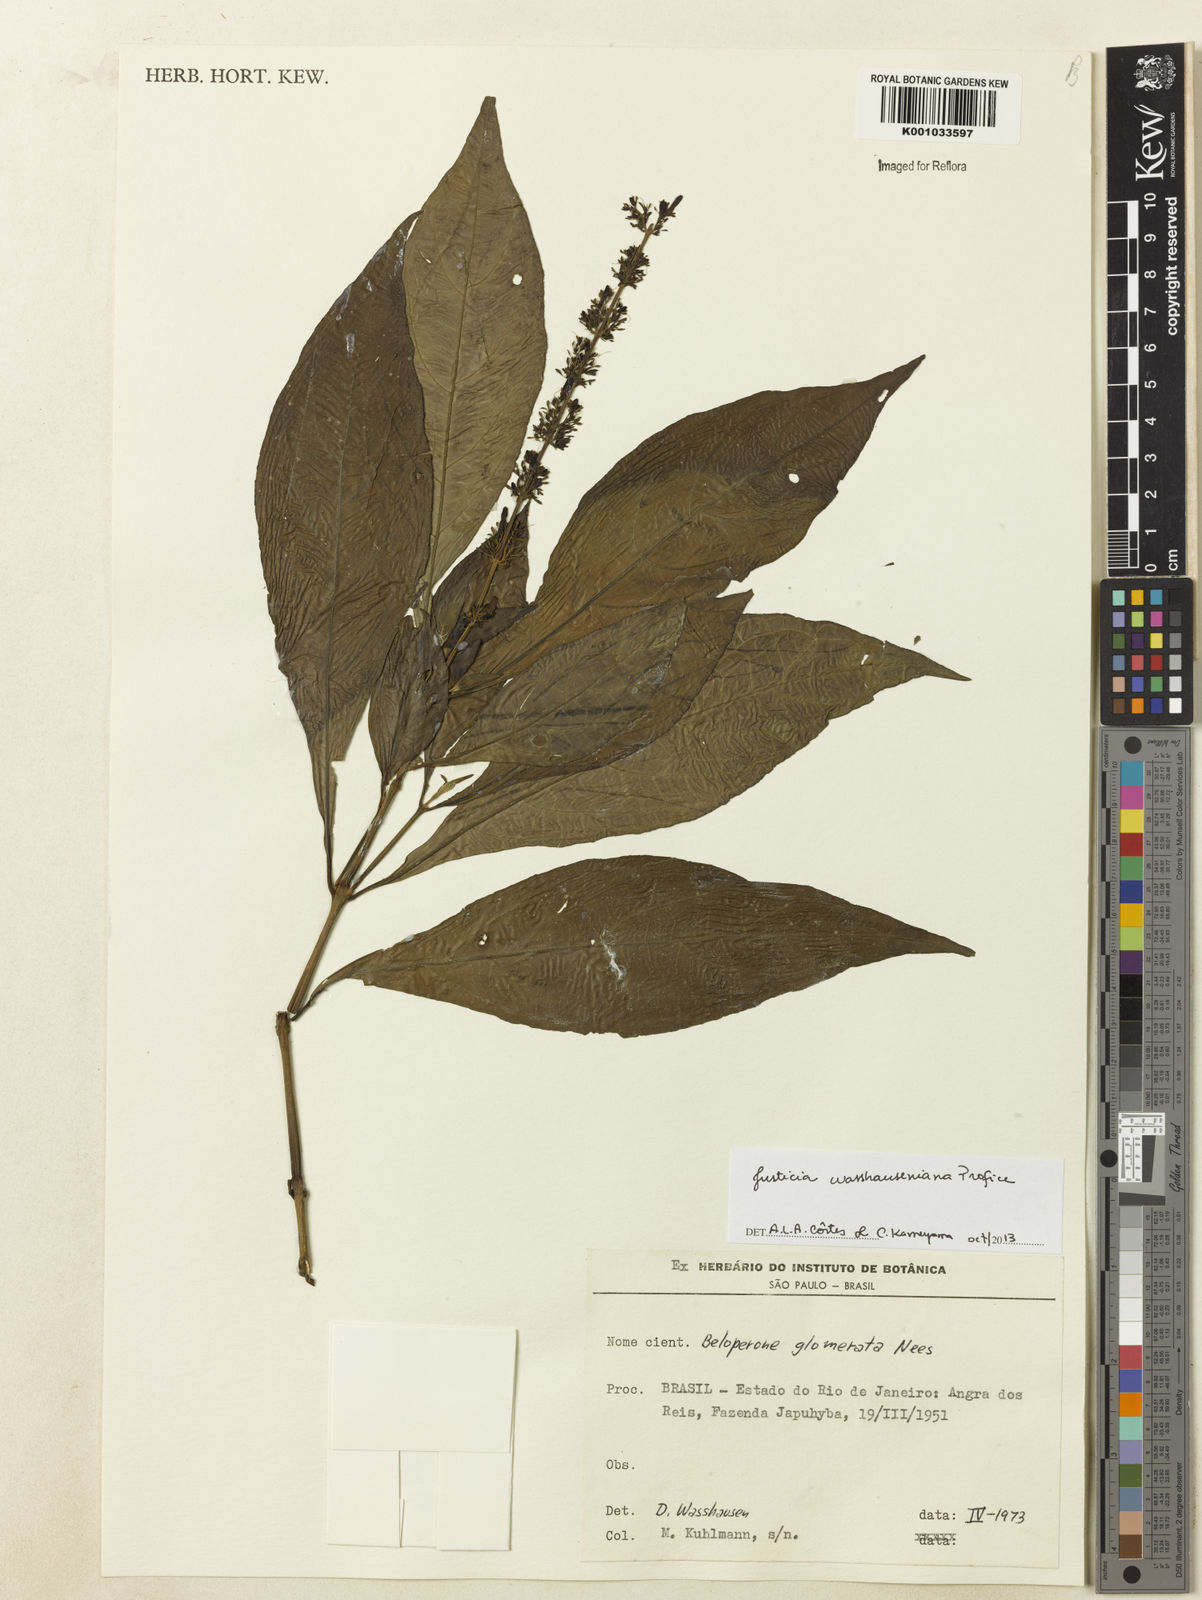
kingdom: Plantae
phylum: Tracheophyta
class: Magnoliopsida
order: Lamiales
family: Acanthaceae
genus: Justicia
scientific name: Justicia wasshauseniana
